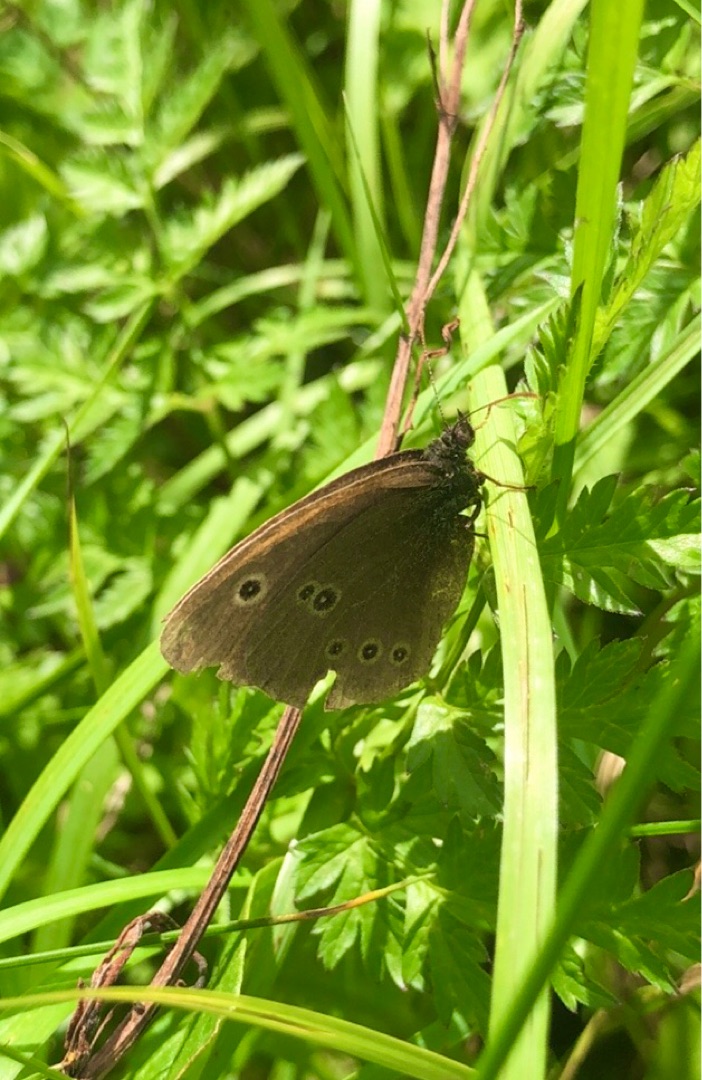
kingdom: Animalia
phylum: Arthropoda
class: Insecta
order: Lepidoptera
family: Nymphalidae
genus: Aphantopus
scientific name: Aphantopus hyperantus
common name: Engrandøje
